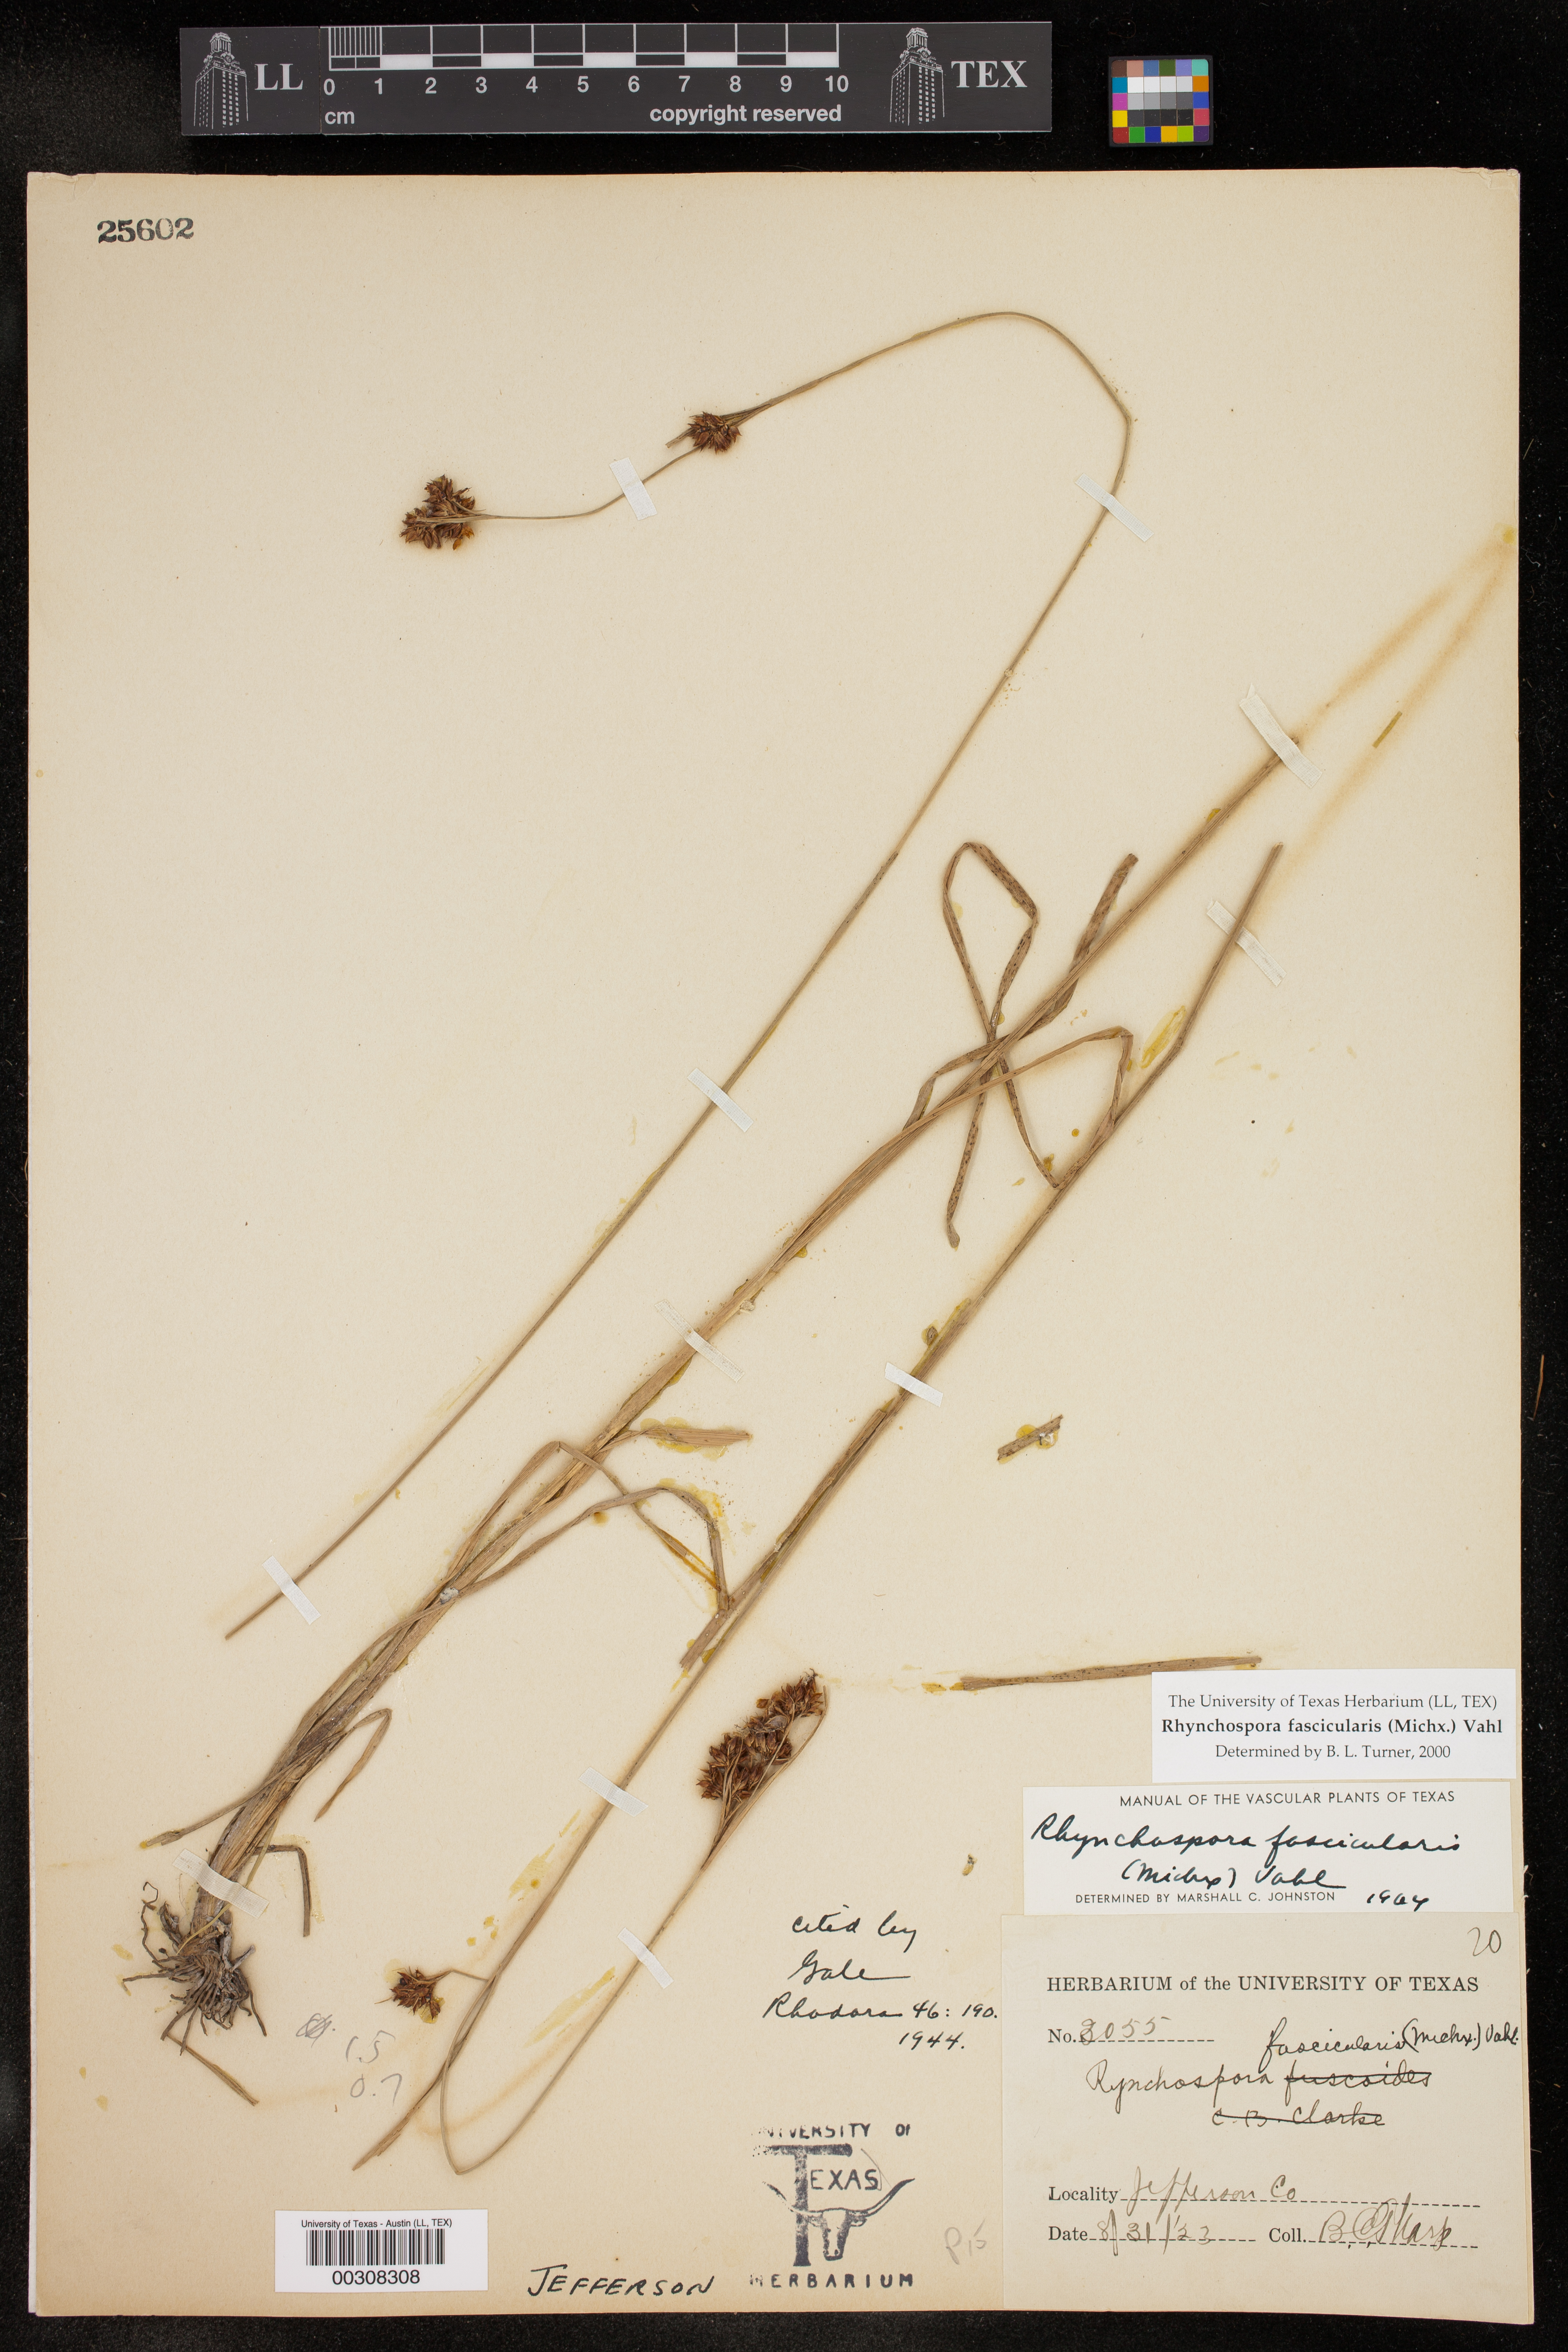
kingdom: Plantae
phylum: Tracheophyta
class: Liliopsida
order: Poales
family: Cyperaceae
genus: Rhynchospora
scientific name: Rhynchospora fascicularis
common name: Fascicled beak sedge
